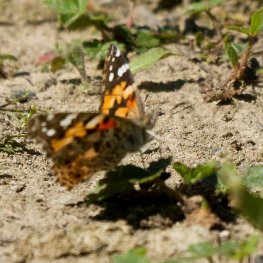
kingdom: Animalia
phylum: Arthropoda
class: Insecta
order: Lepidoptera
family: Nymphalidae
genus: Vanessa
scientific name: Vanessa cardui
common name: Painted Lady
